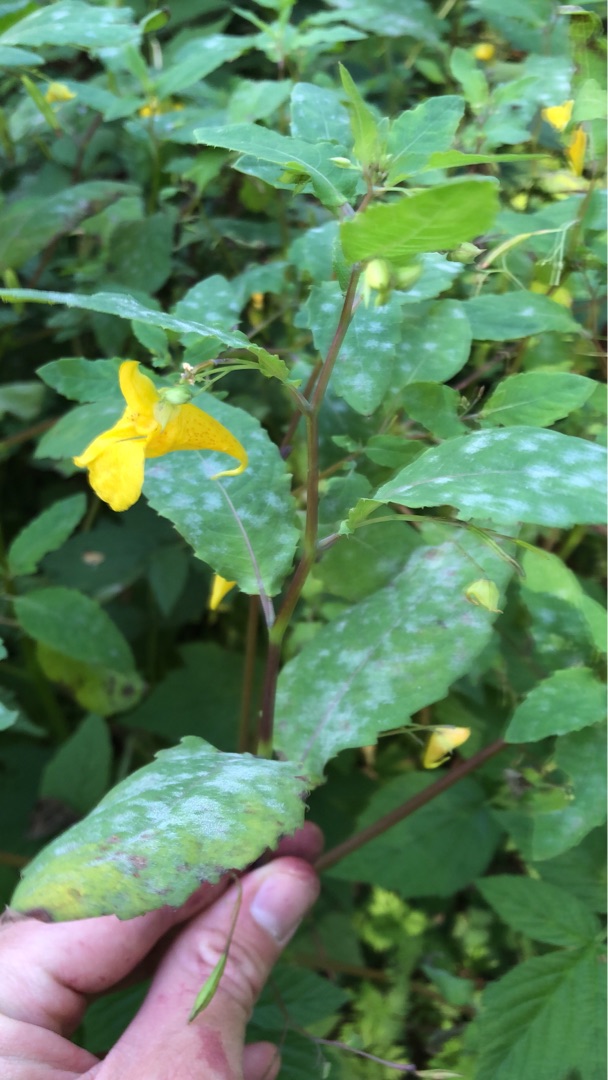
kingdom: Plantae
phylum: Tracheophyta
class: Magnoliopsida
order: Ericales
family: Balsaminaceae
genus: Impatiens
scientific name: Impatiens noli-tangere
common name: Spring-balsamin
